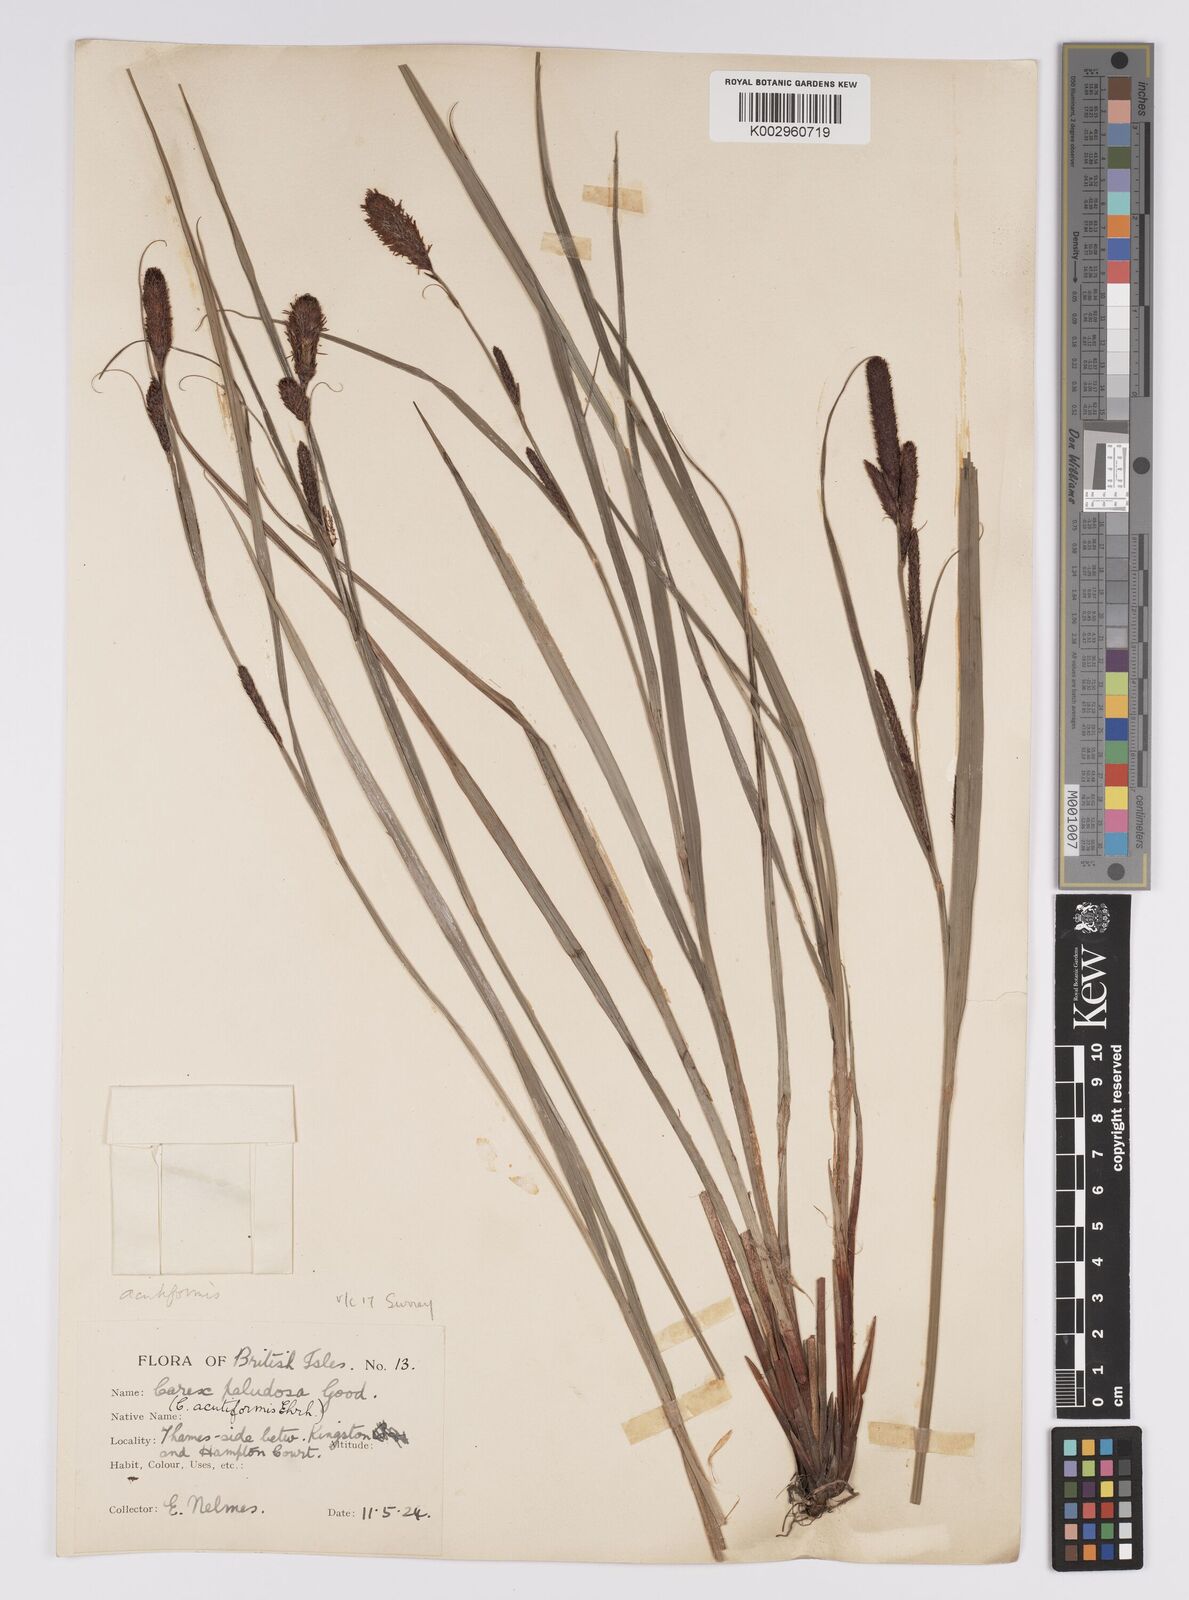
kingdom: Plantae
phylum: Tracheophyta
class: Liliopsida
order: Poales
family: Cyperaceae
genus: Carex
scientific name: Carex acutiformis
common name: Lesser pond-sedge
